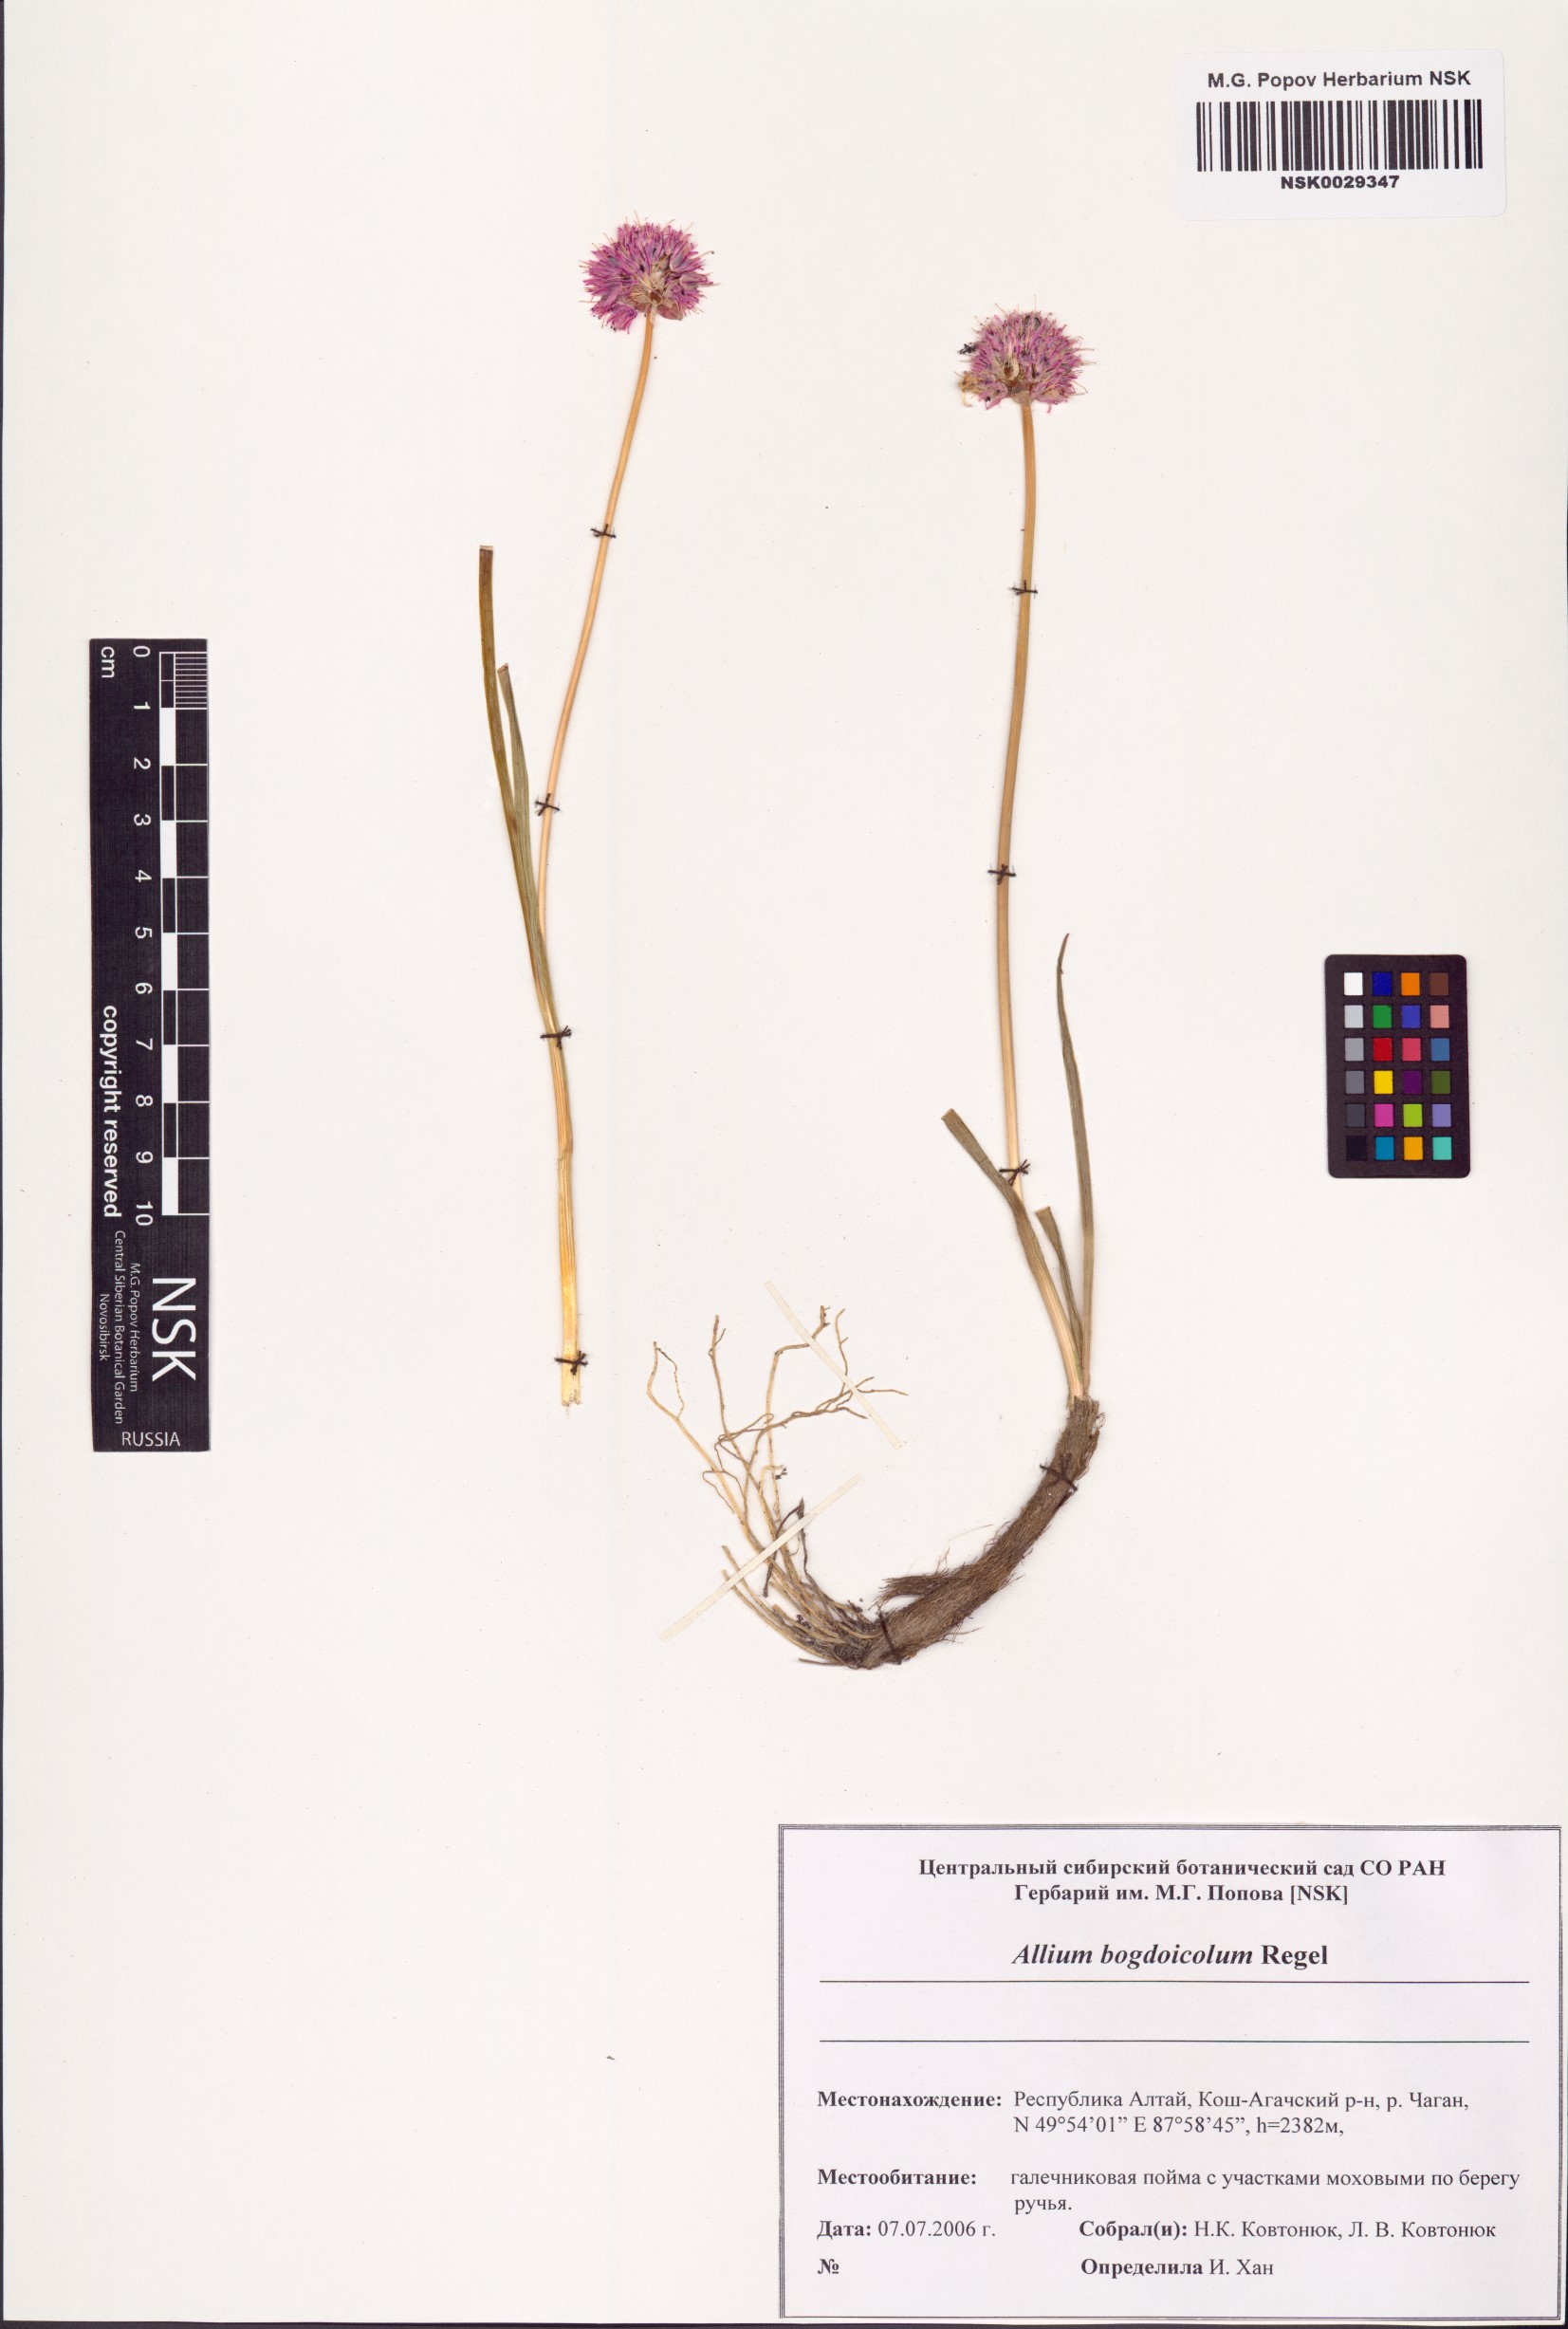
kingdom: Plantae
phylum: Tracheophyta
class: Liliopsida
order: Asparagales
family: Amaryllidaceae
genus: Allium
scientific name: Allium schrenkii
